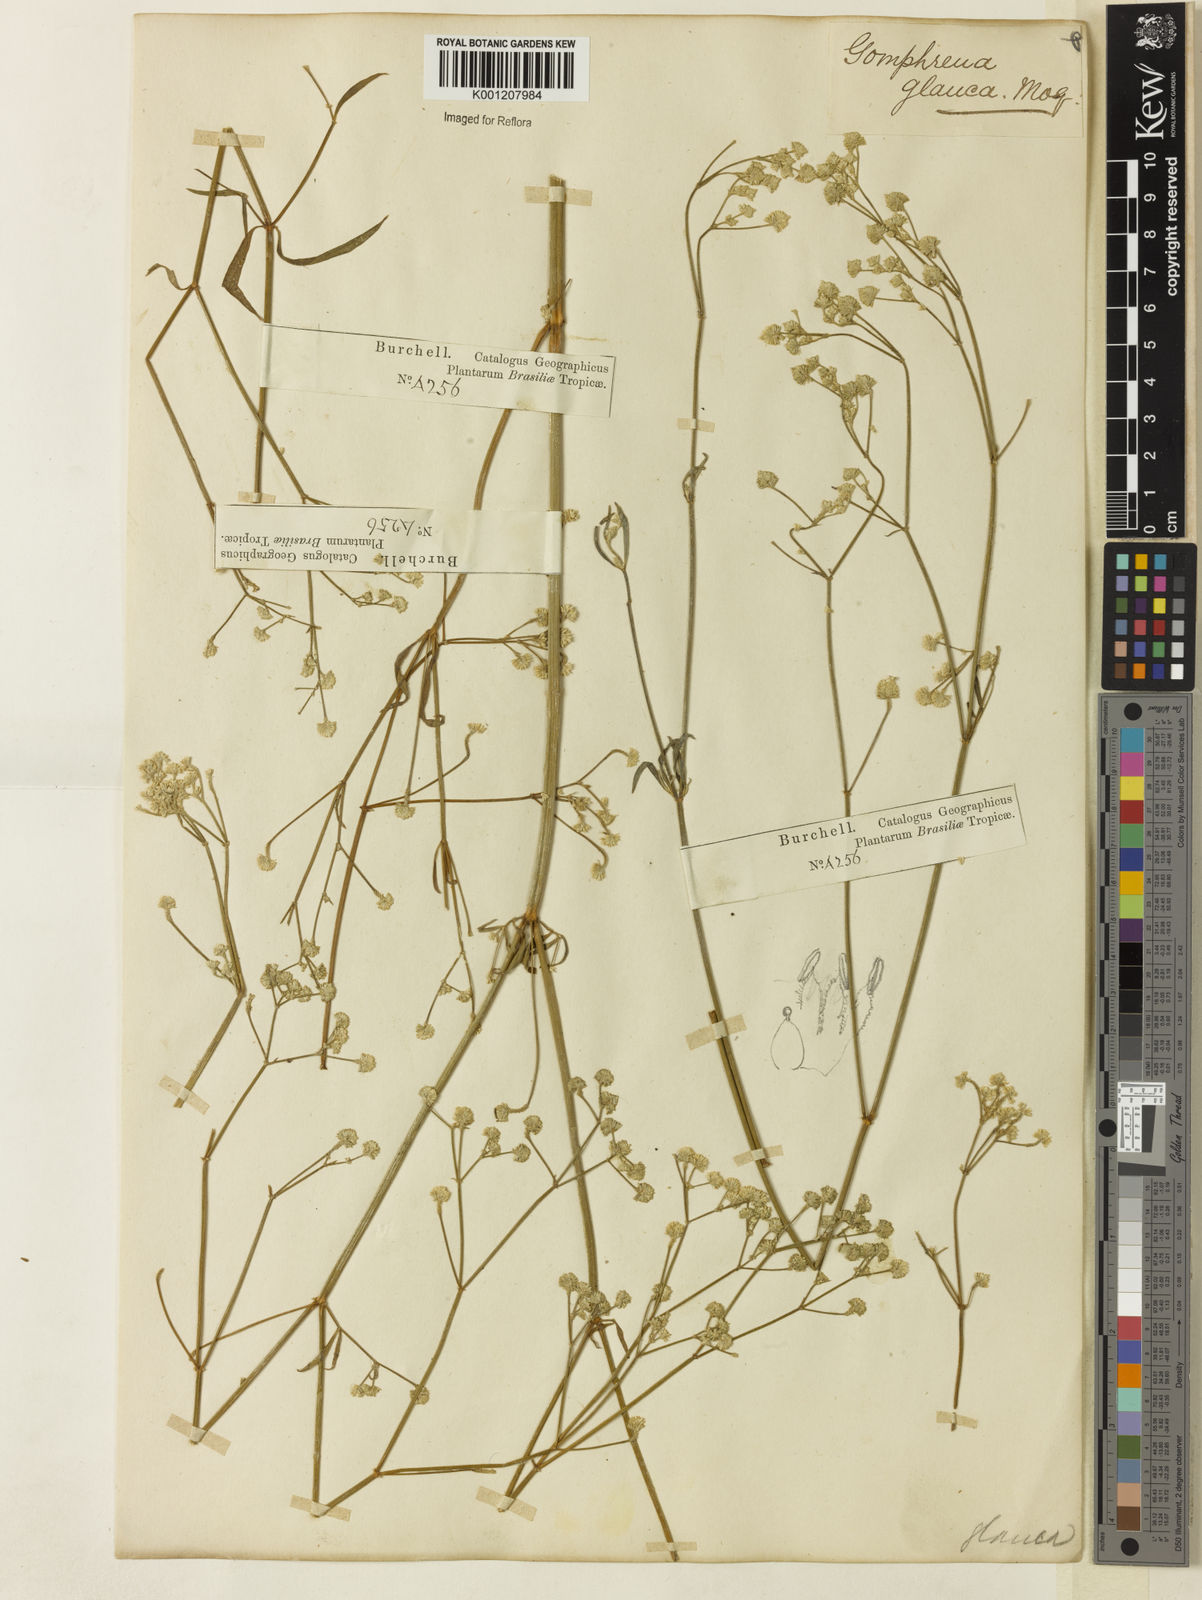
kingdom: Plantae
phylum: Tracheophyta
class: Magnoliopsida
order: Caryophyllales
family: Amaranthaceae
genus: Pfaffia
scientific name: Pfaffia
